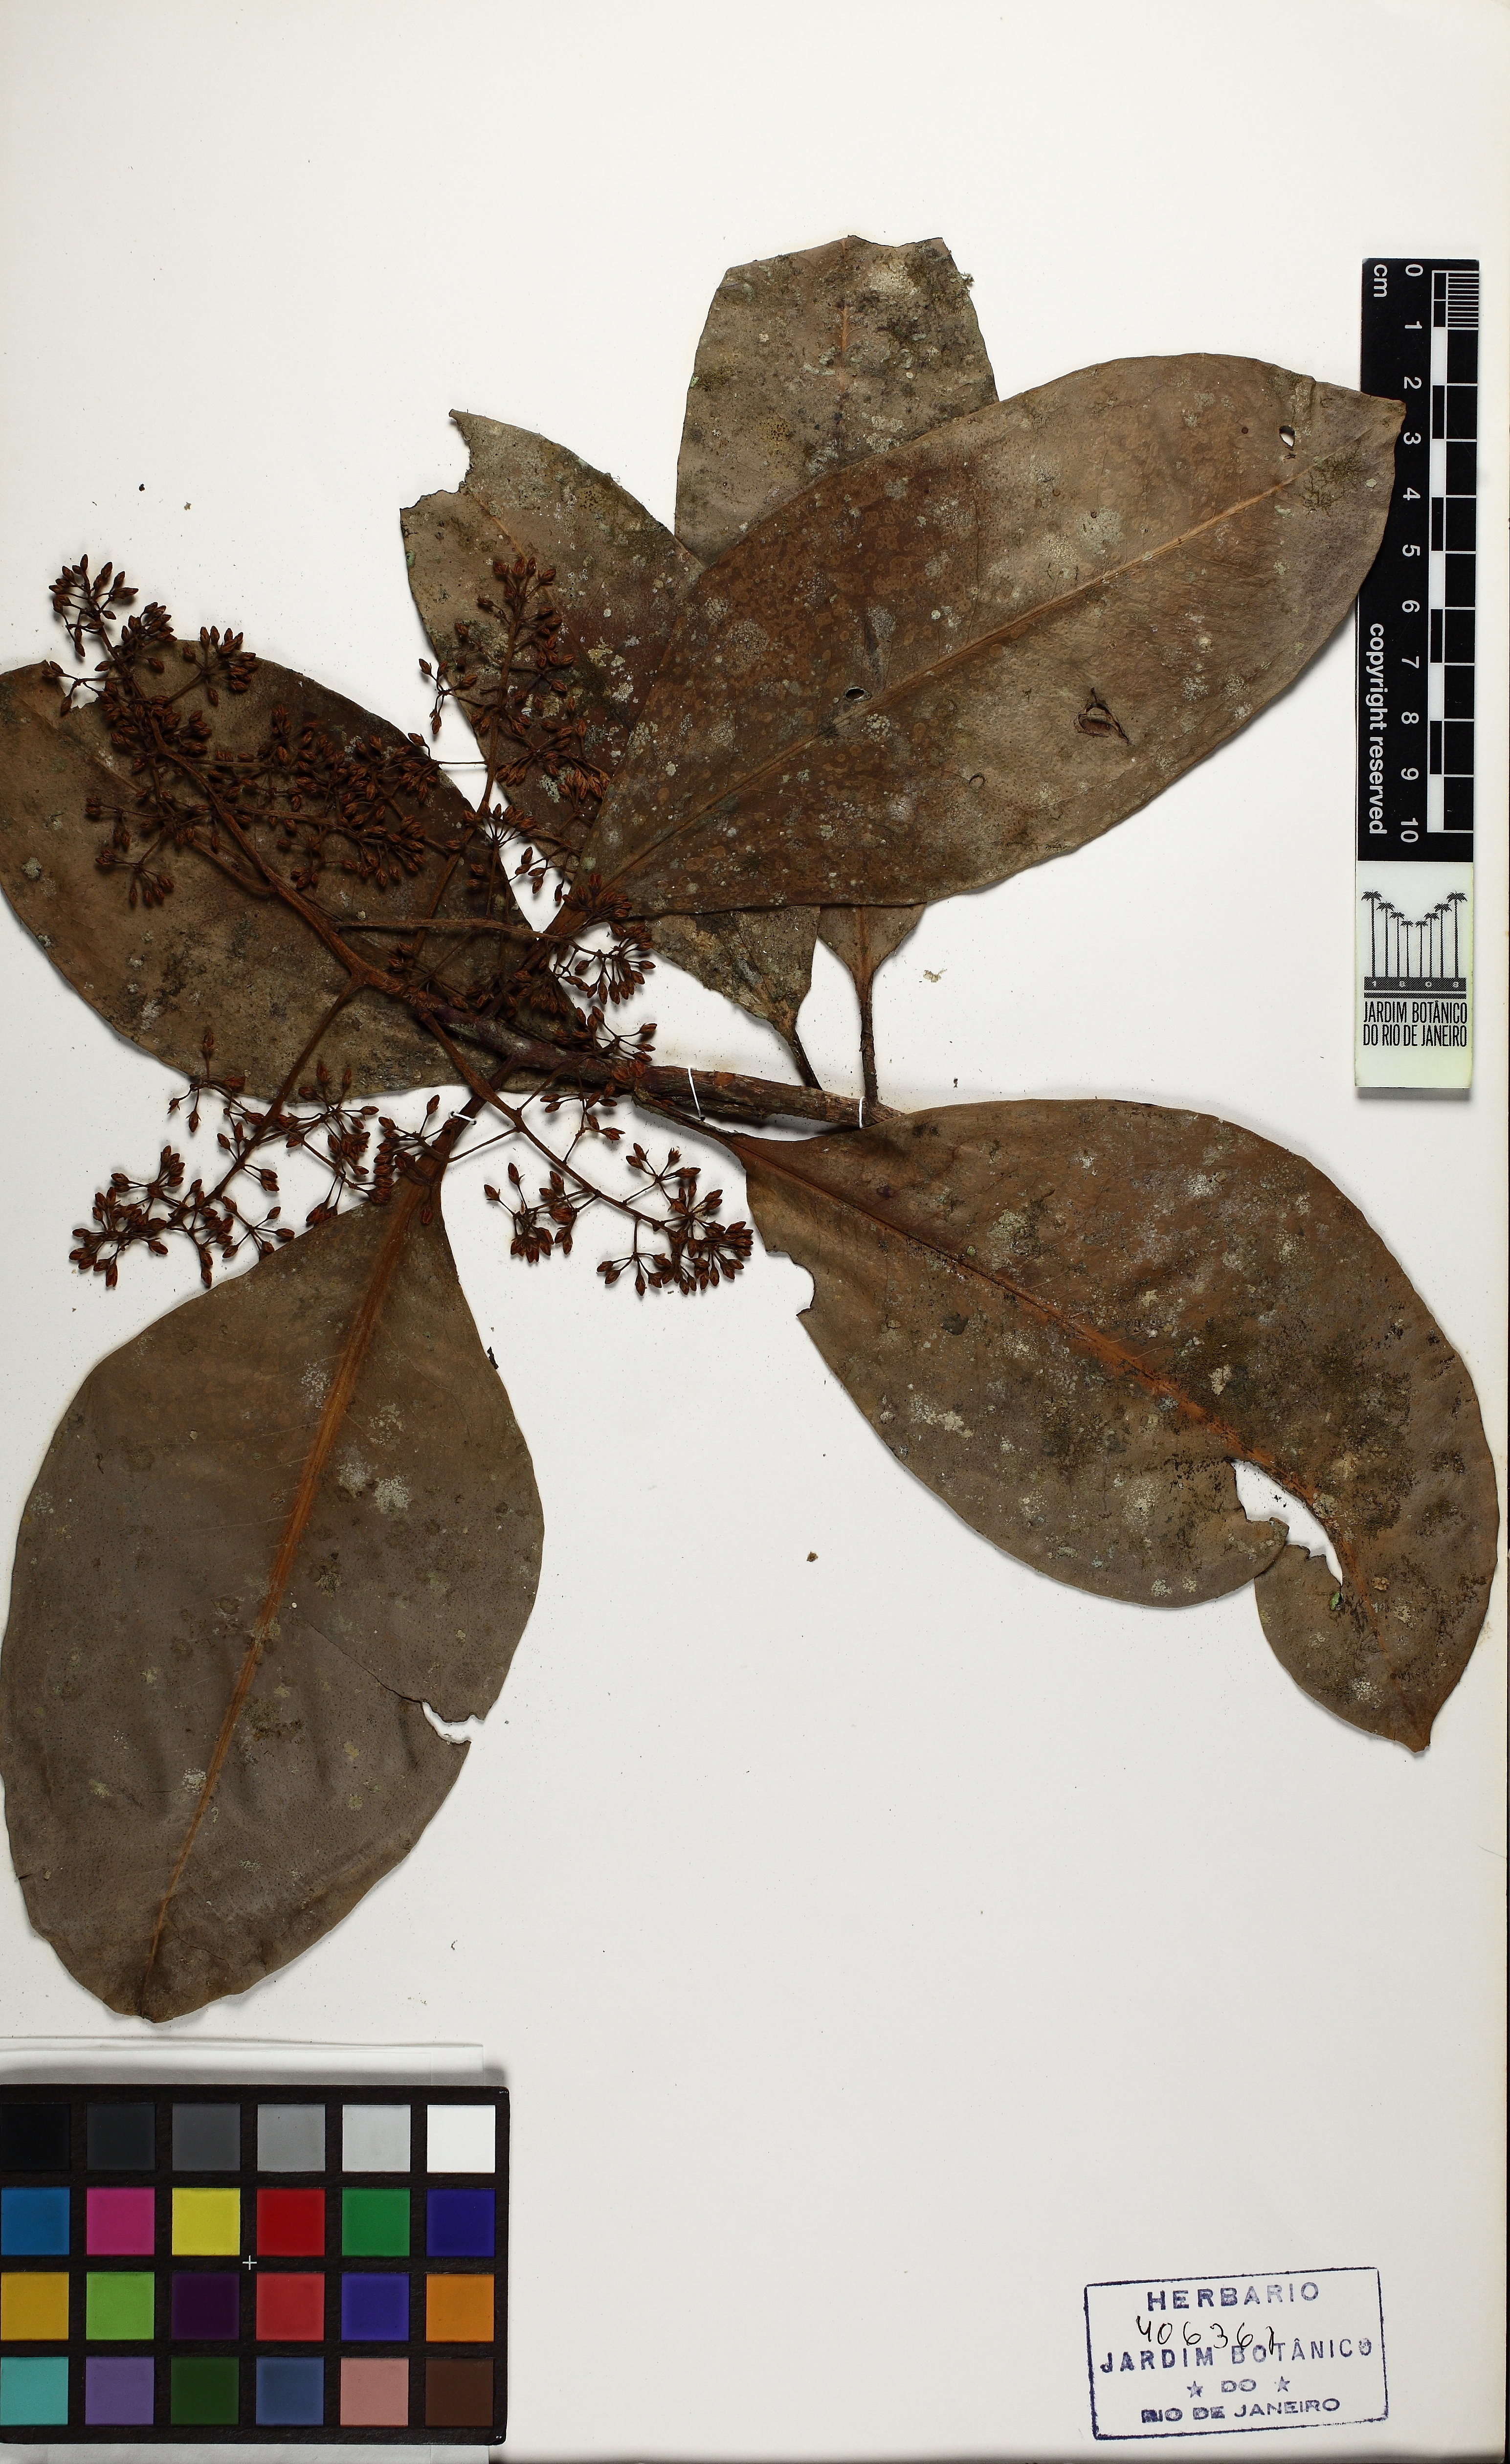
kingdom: Plantae
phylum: Tracheophyta
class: Magnoliopsida
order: Ericales
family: Primulaceae
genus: Stylogyne
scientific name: Stylogyne lhotzkyana
